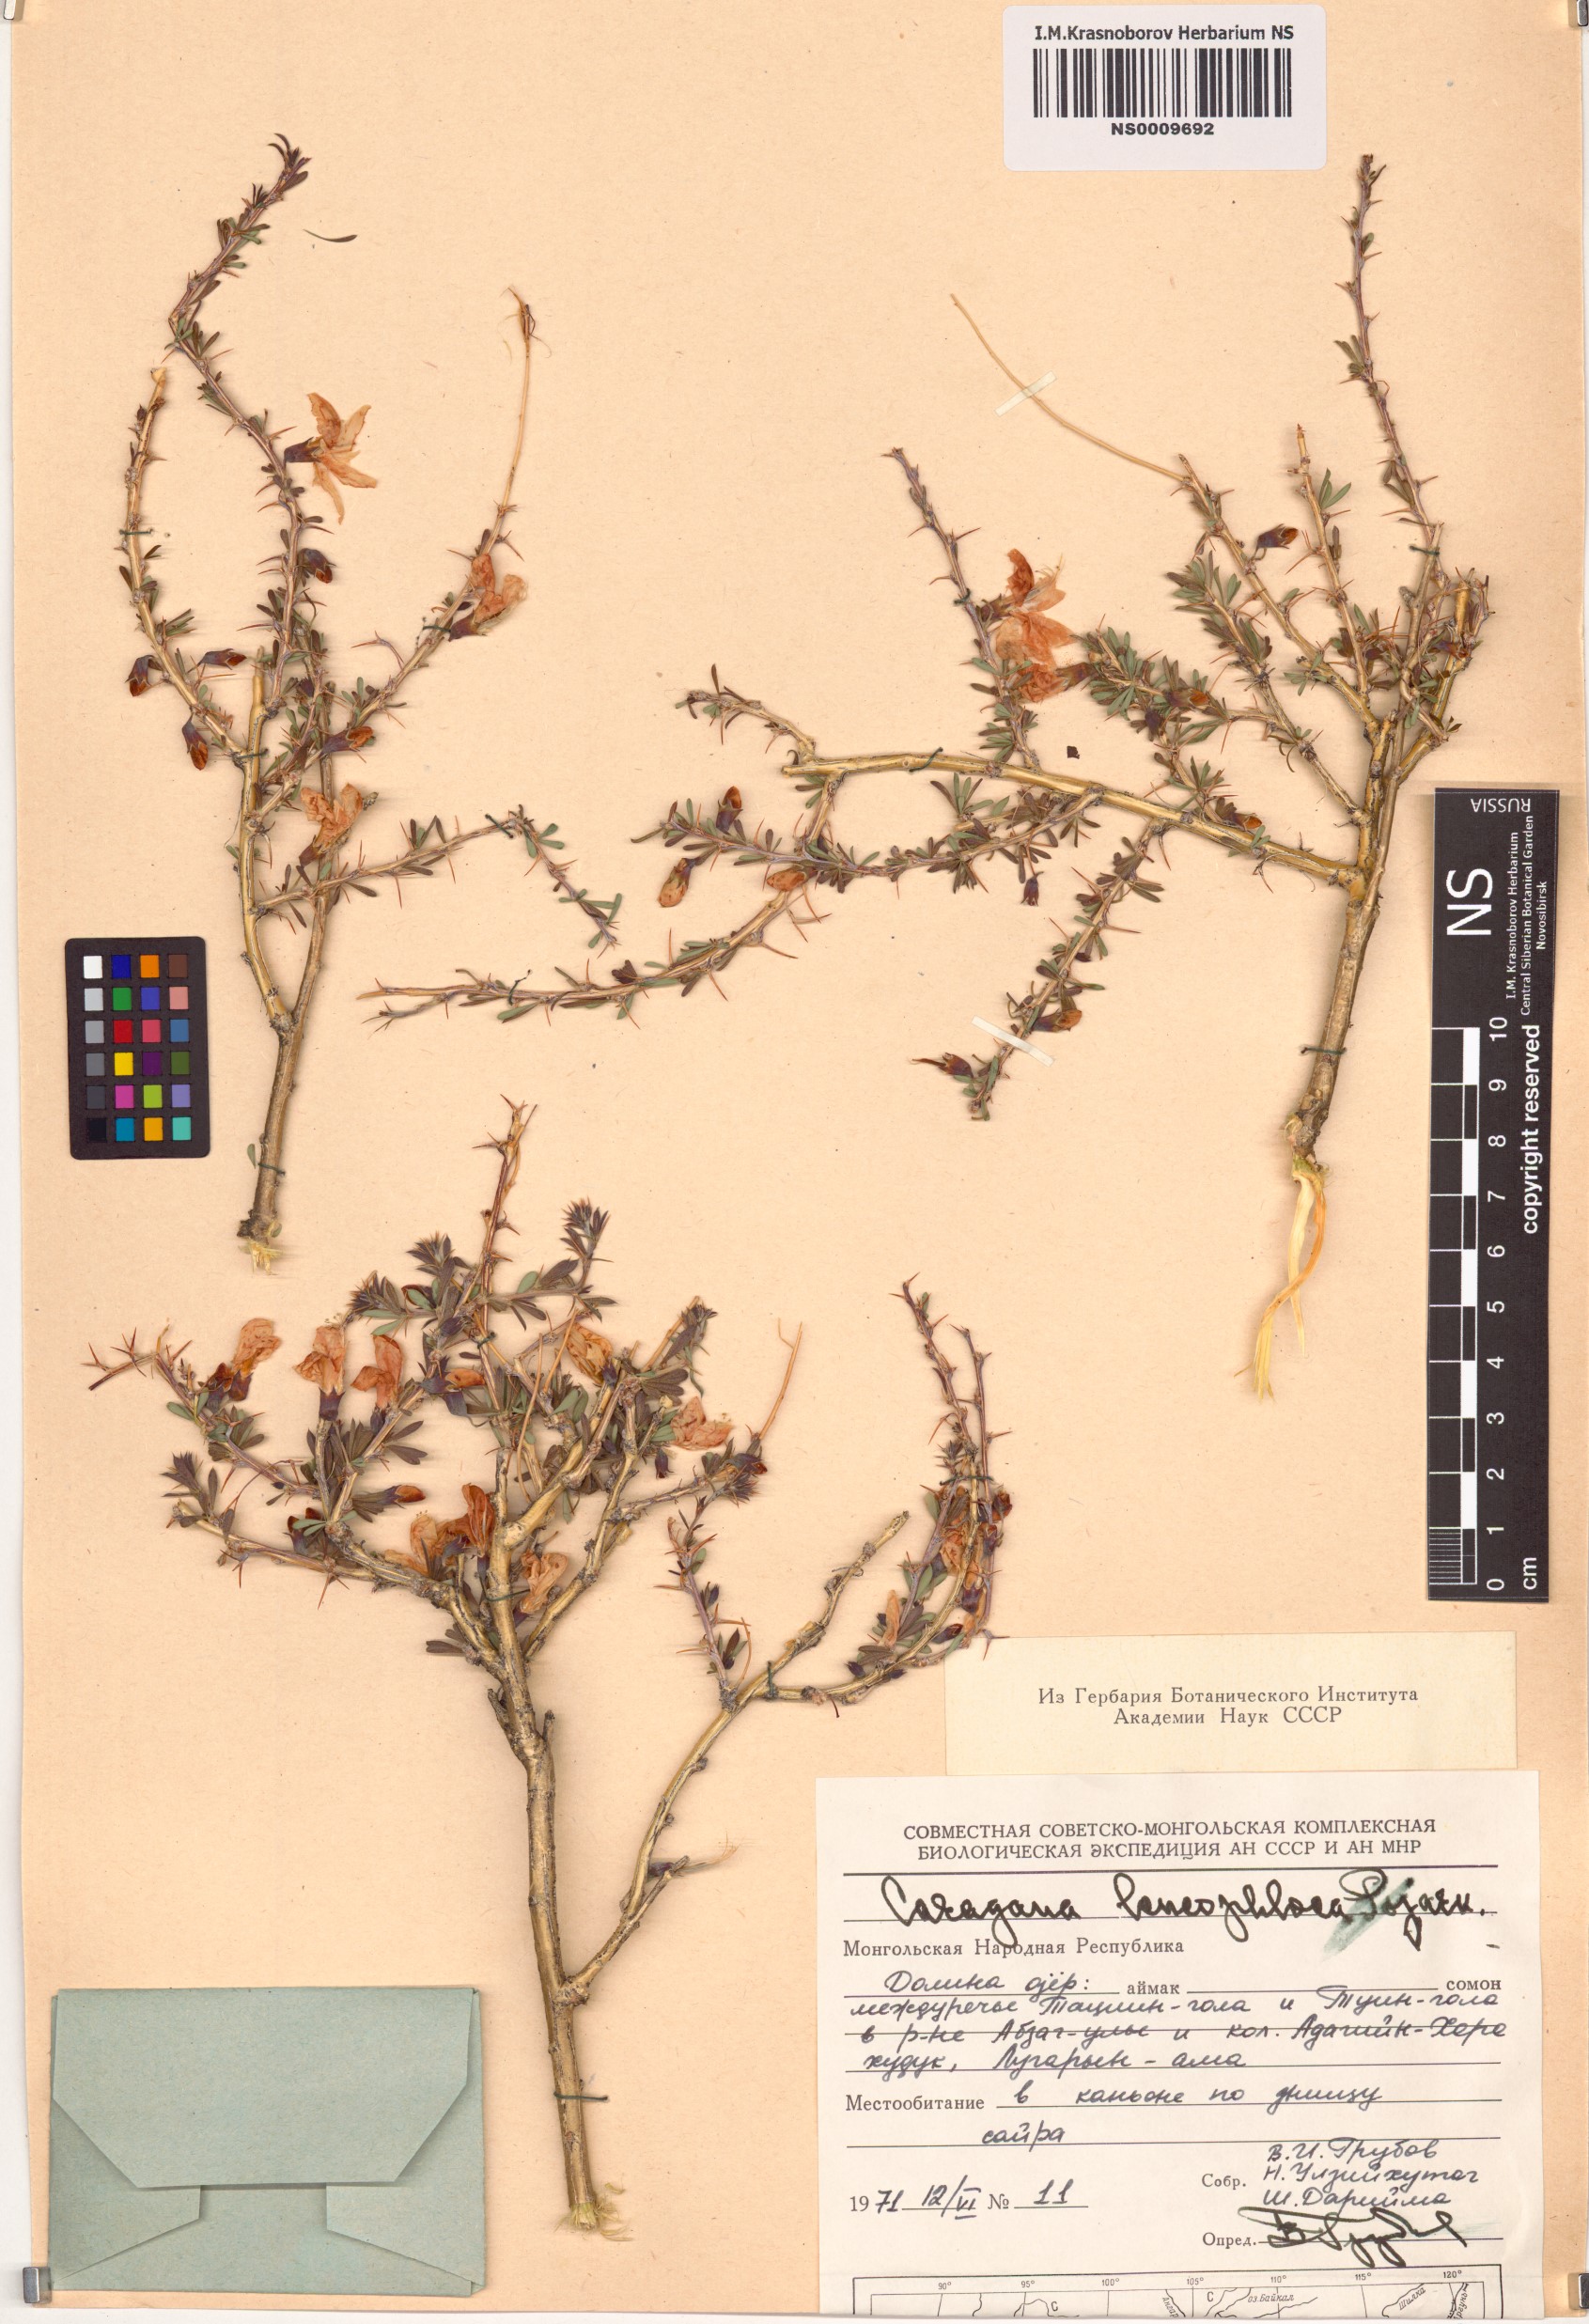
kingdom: Plantae
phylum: Tracheophyta
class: Magnoliopsida
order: Fabales
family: Fabaceae
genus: Caragana
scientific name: Caragana leucophloea
